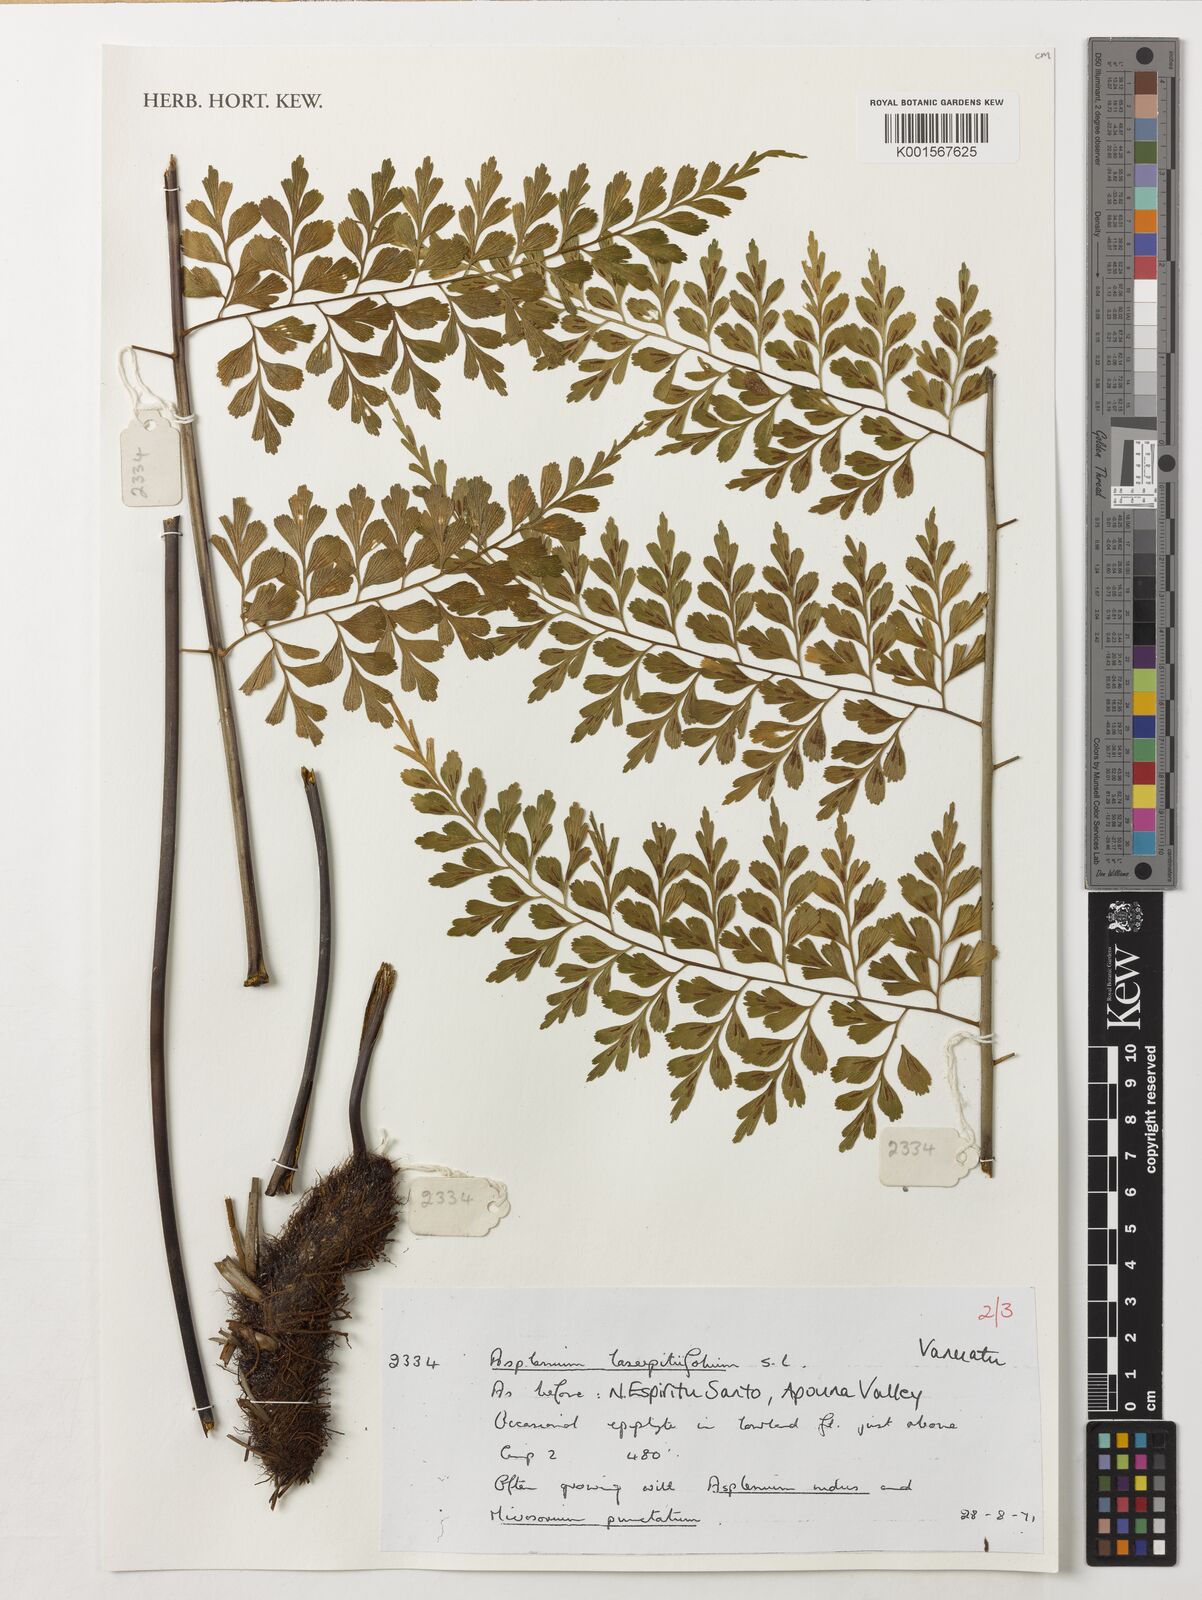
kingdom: Plantae
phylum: Tracheophyta
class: Polypodiopsida
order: Polypodiales
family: Aspleniaceae
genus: Asplenium
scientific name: Asplenium laserpitiifolium
